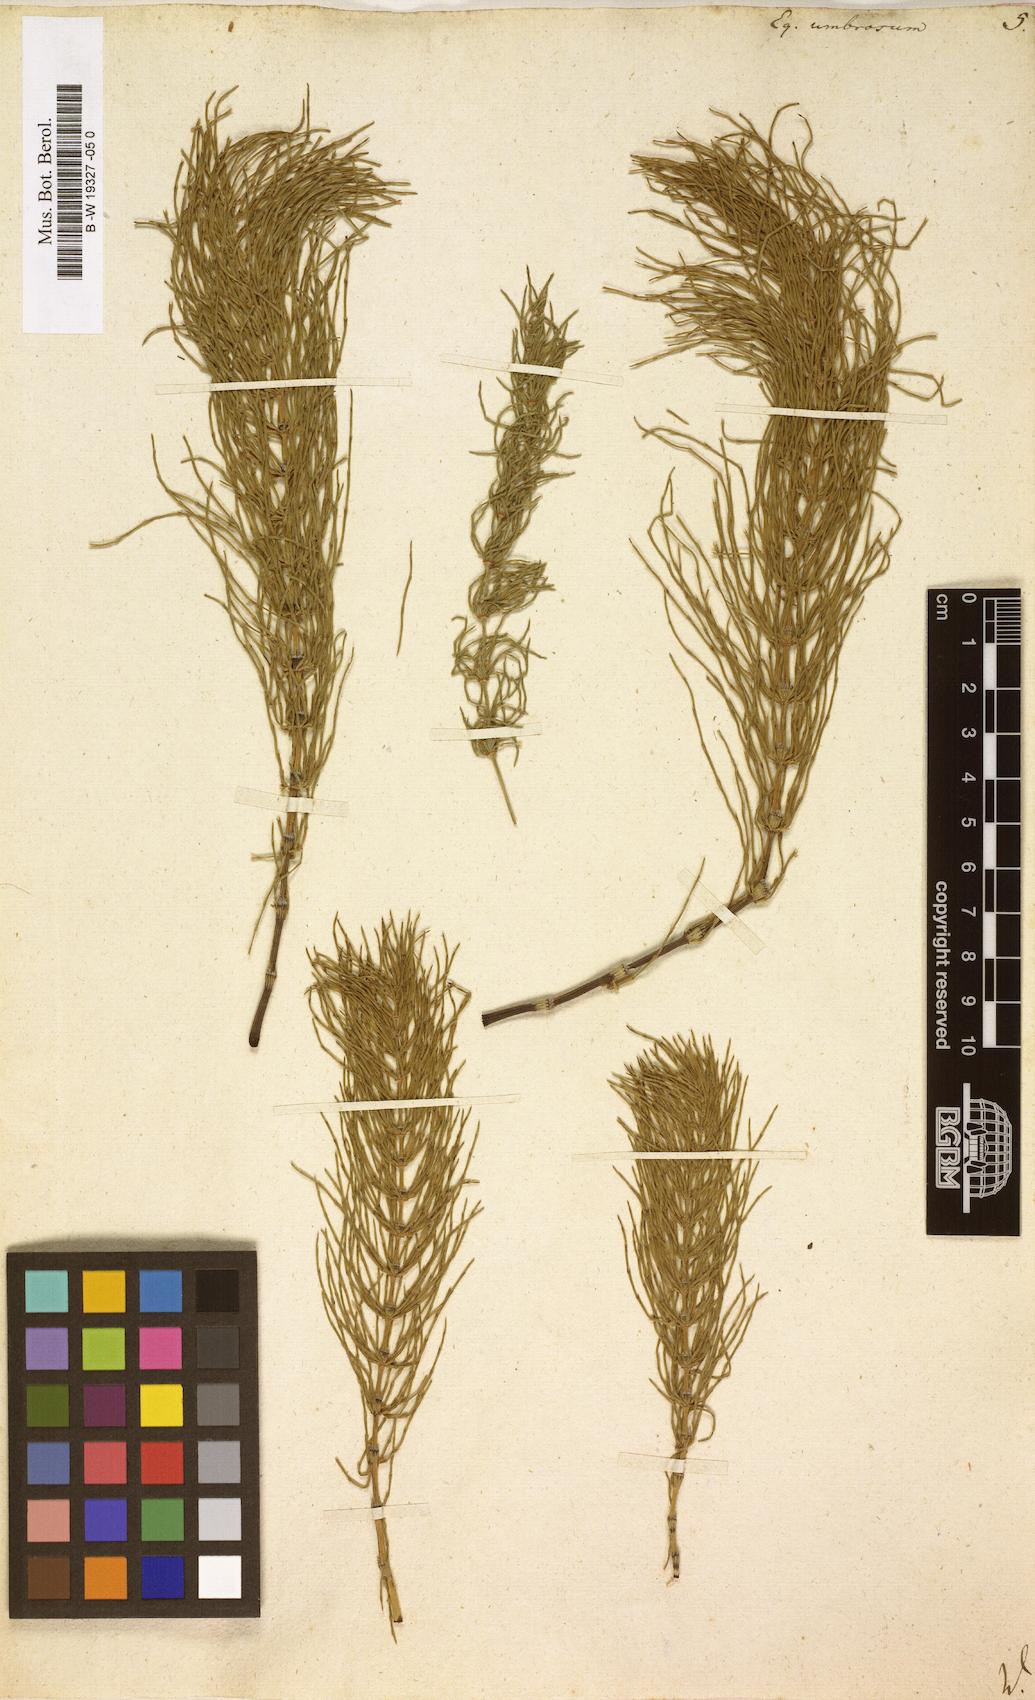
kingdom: Plantae
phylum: Tracheophyta
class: Polypodiopsida
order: Equisetales
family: Equisetaceae
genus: Equisetum
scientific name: Equisetum pratense
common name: Meadow horsetail
